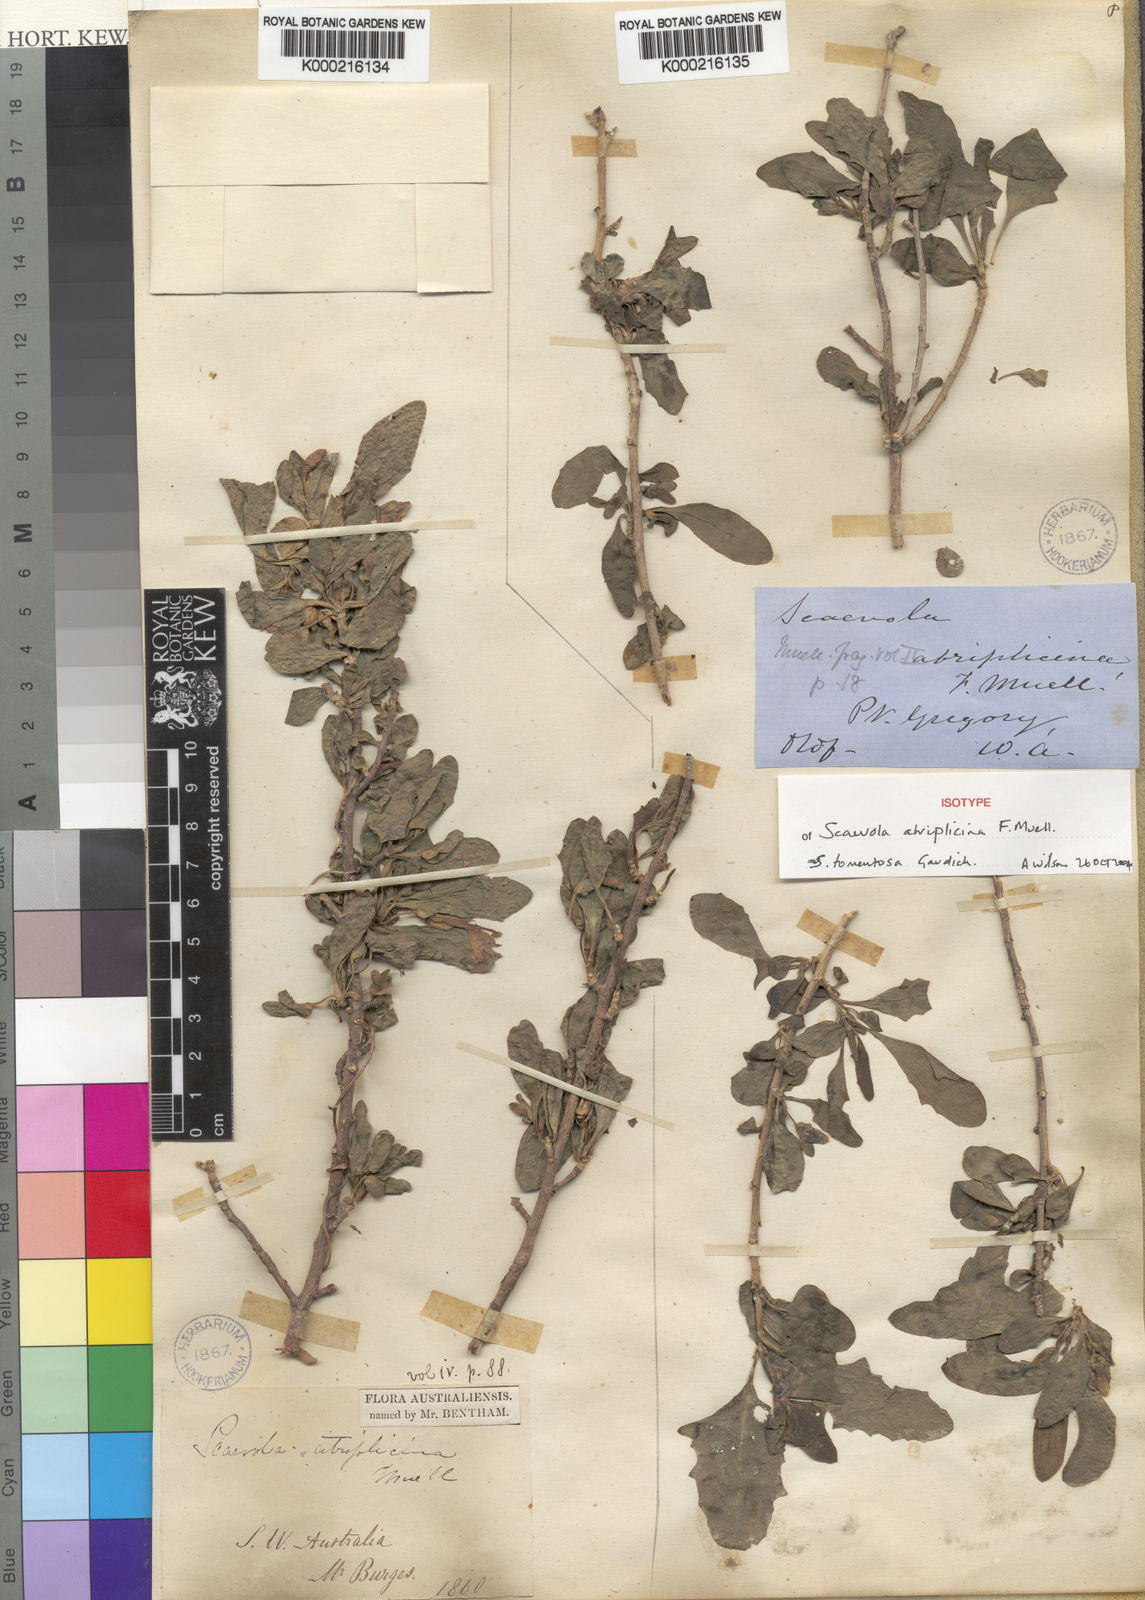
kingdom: Plantae
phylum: Tracheophyta
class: Magnoliopsida
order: Asterales
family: Goodeniaceae
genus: Scaevola
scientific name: Scaevola tomentosa
